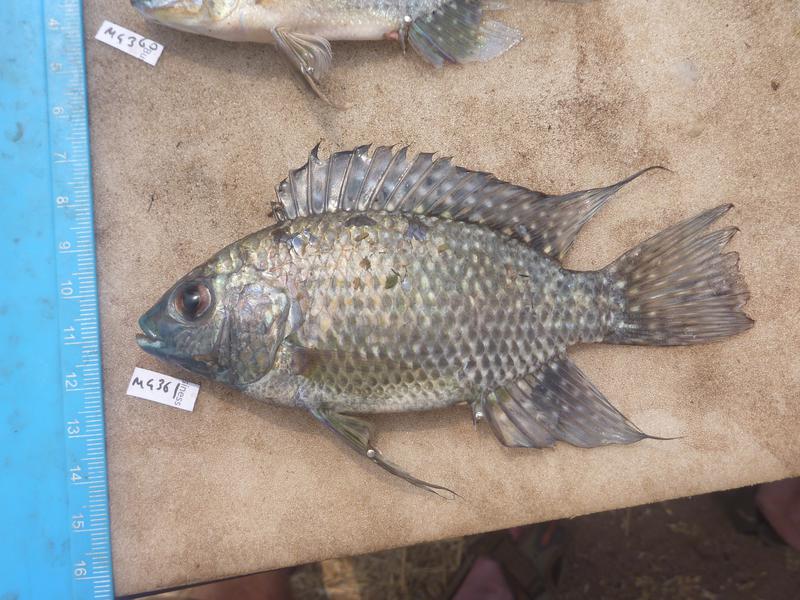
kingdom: Animalia
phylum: Chordata
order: Perciformes
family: Cichlidae
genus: Oreochromis
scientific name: Oreochromis leucostictus
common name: Blue spotted tilapia
